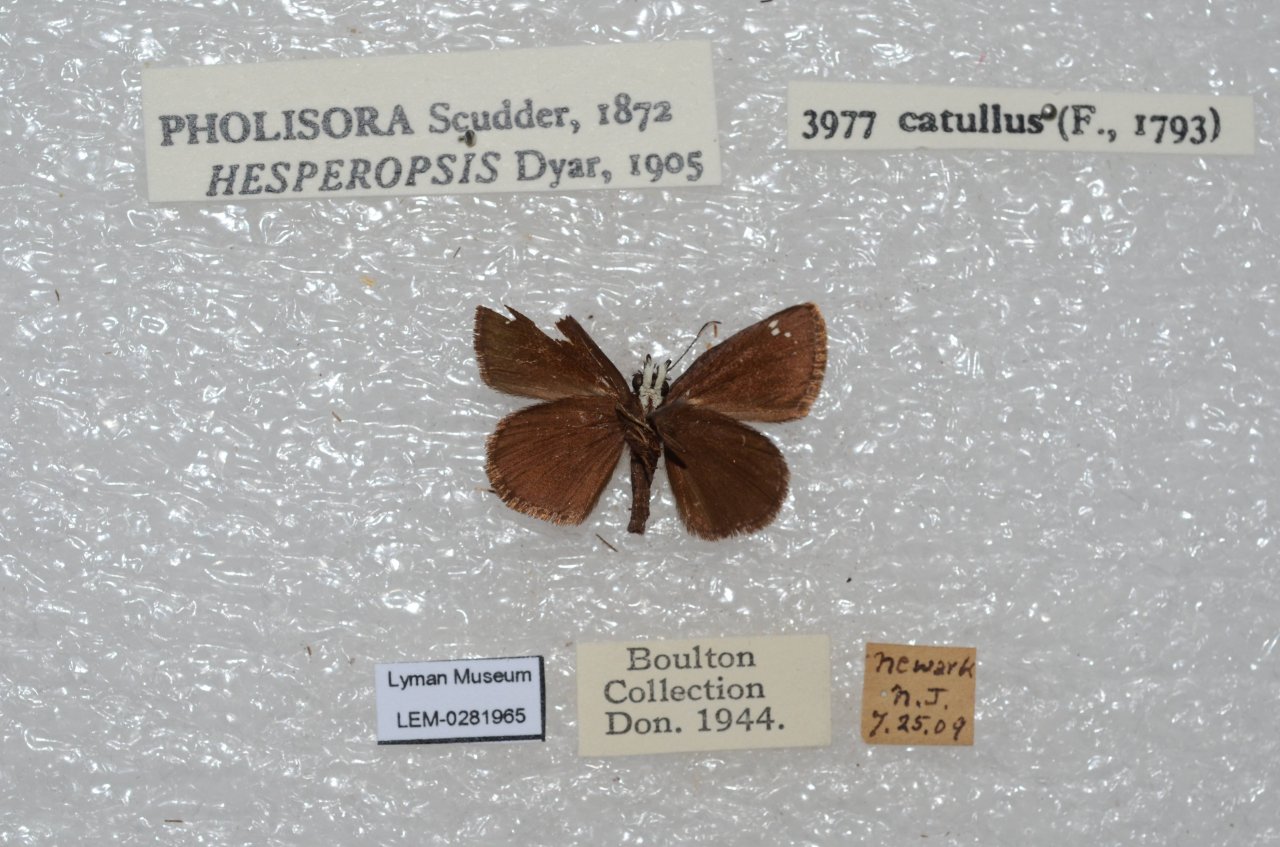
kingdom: Animalia
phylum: Arthropoda
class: Insecta
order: Lepidoptera
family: Hesperiidae
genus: Pholisora
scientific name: Pholisora catullus
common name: Common Sootywing
